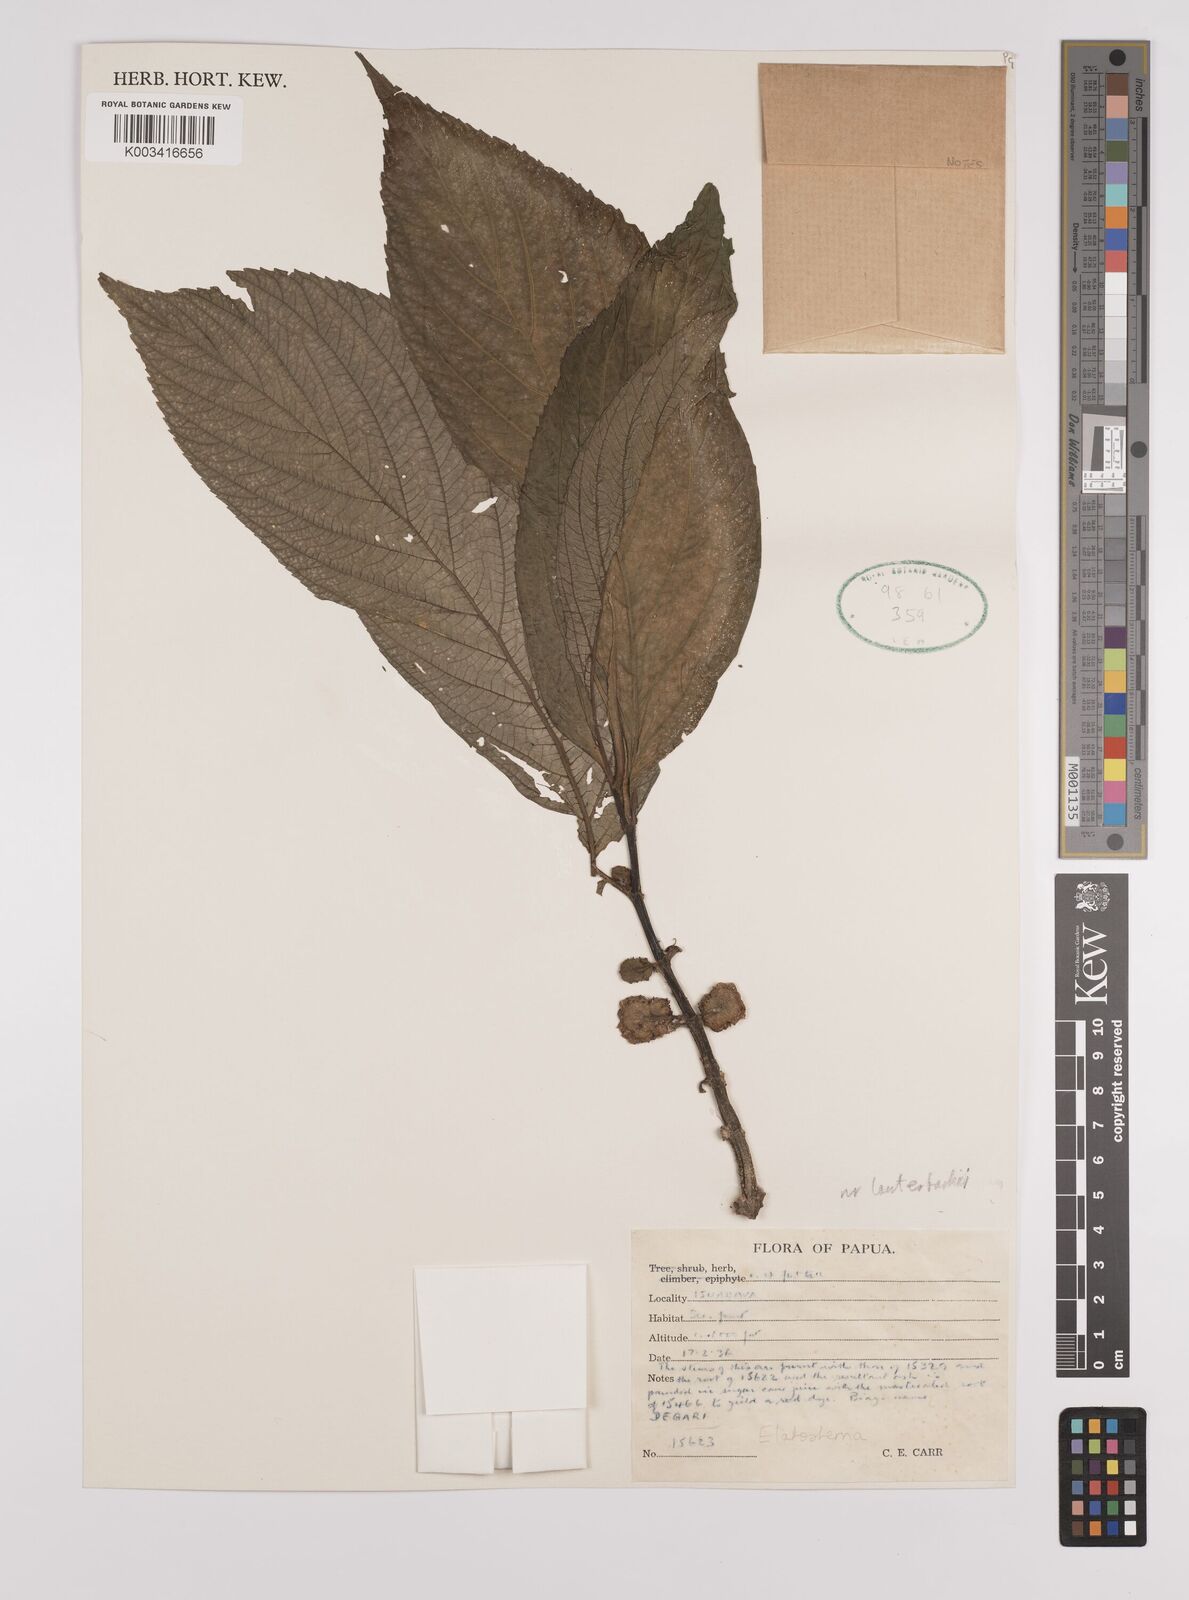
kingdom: Plantae
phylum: Tracheophyta
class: Magnoliopsida
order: Rosales
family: Urticaceae
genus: Elatostema
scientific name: Elatostema
